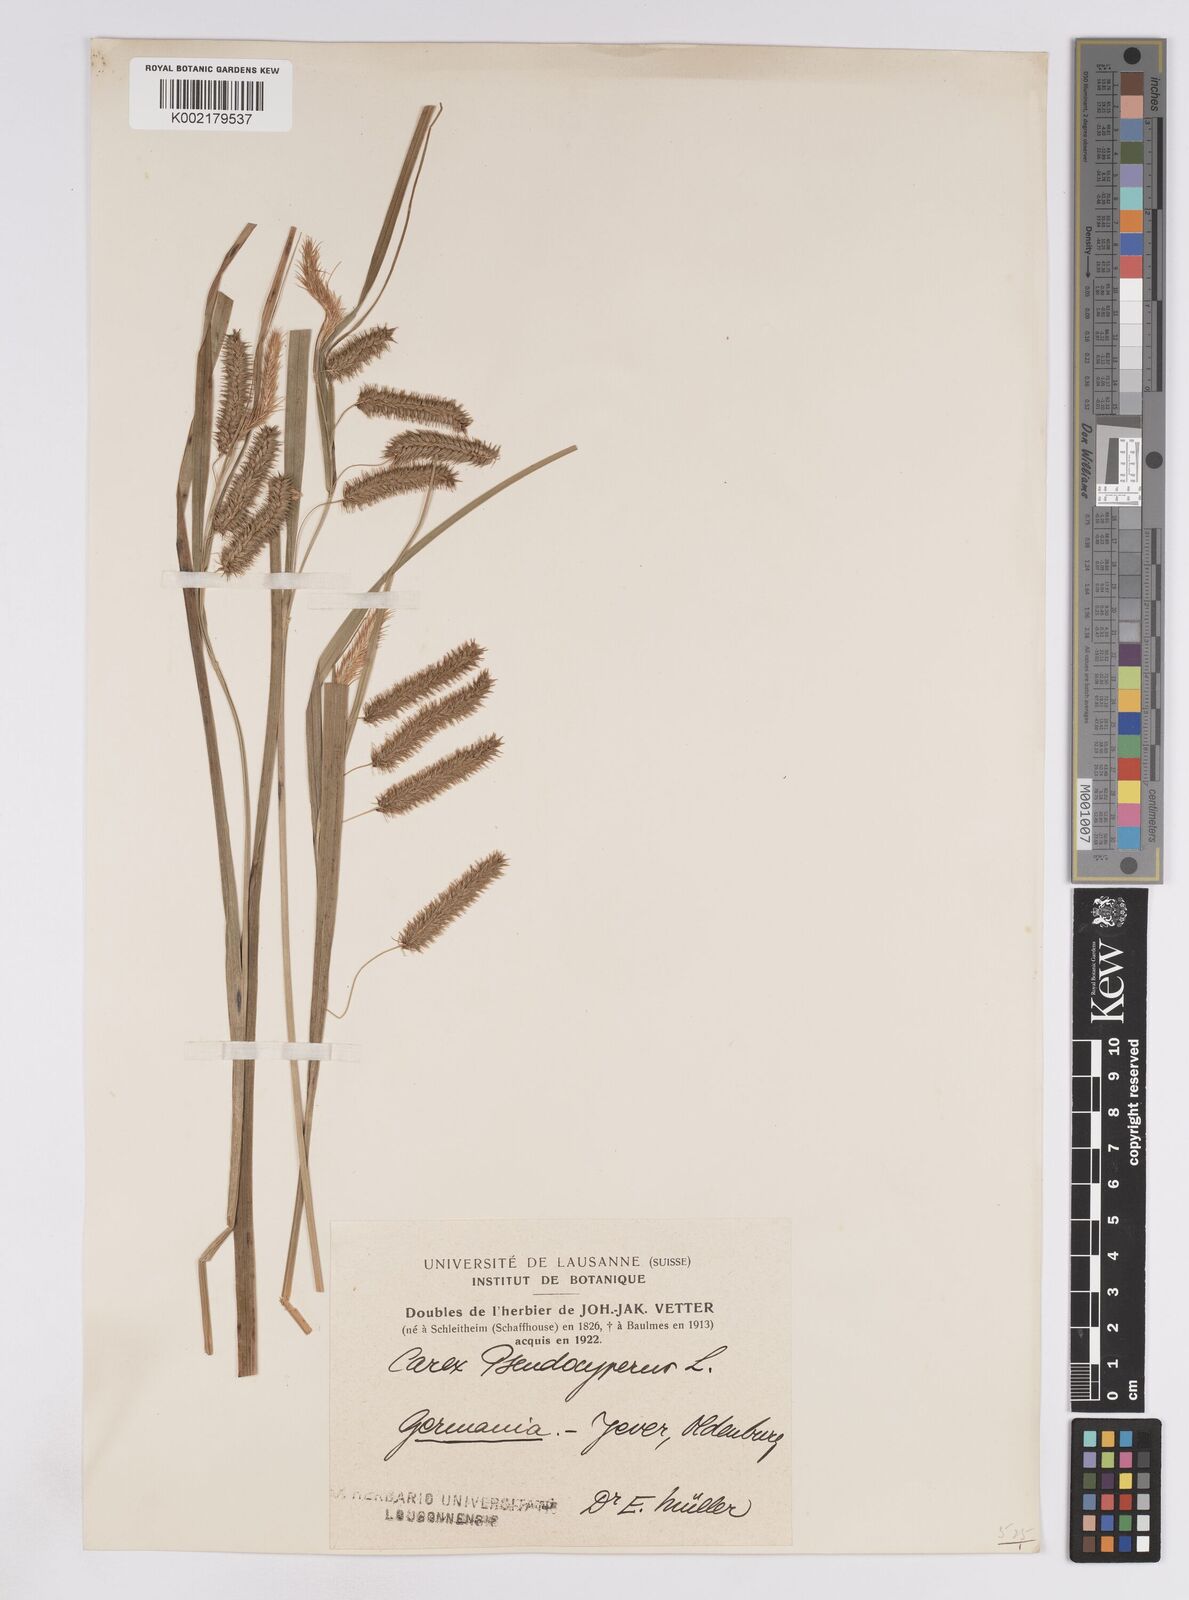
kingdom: Plantae
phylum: Tracheophyta
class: Liliopsida
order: Poales
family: Cyperaceae
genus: Carex
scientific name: Carex pseudocyperus
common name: Cyperus sedge
